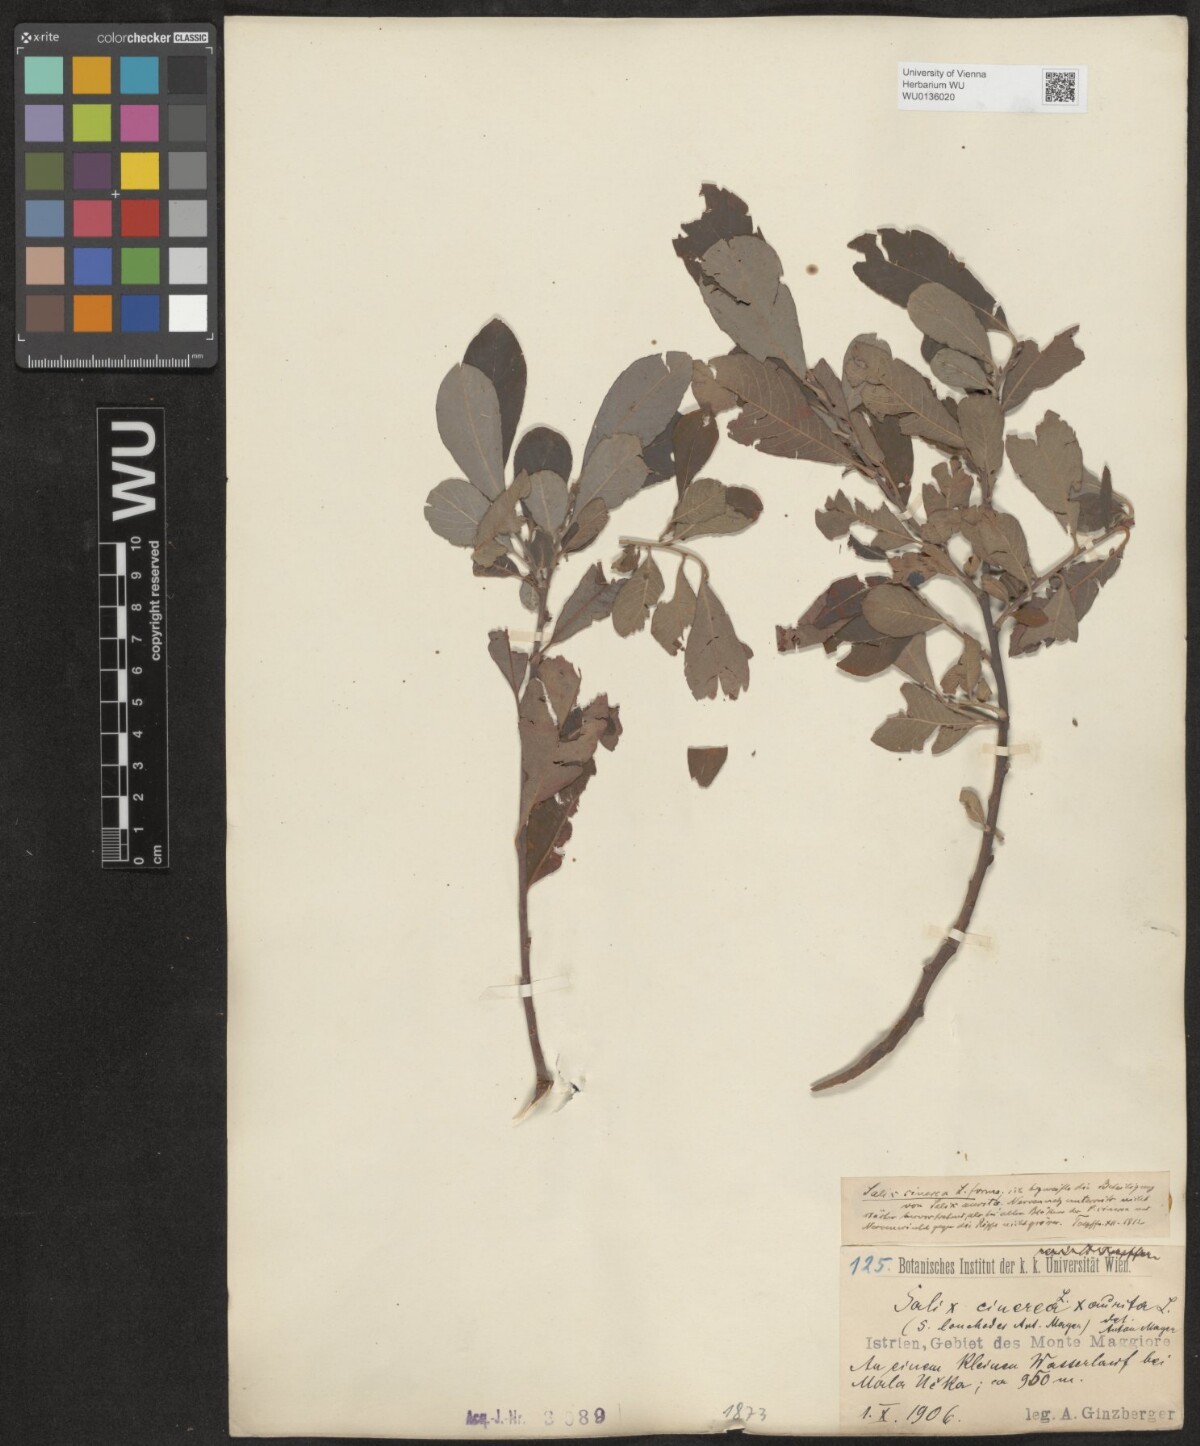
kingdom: Plantae
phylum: Tracheophyta
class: Magnoliopsida
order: Malpighiales
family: Salicaceae
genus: Salix
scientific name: Salix cinerea
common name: Common sallow
